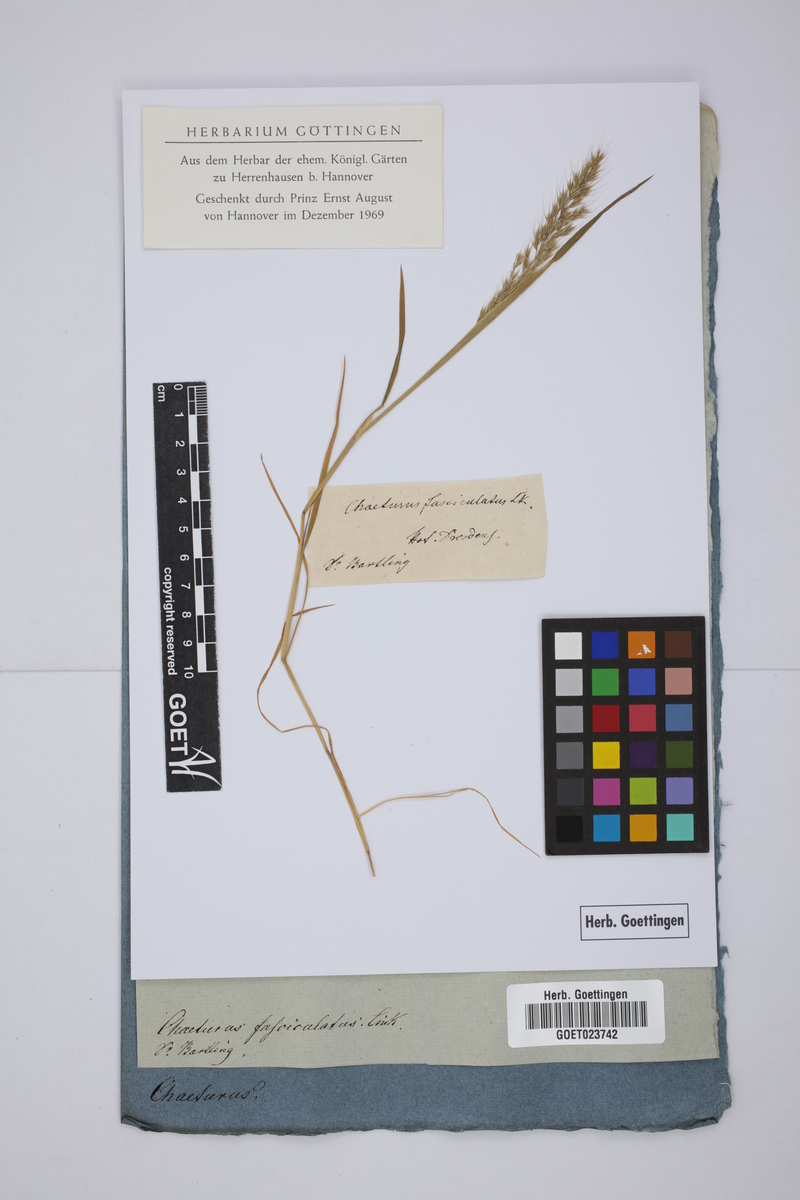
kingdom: Plantae
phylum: Tracheophyta
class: Liliopsida
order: Poales
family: Poaceae
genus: Agrostis
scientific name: Agrostis subspicata
